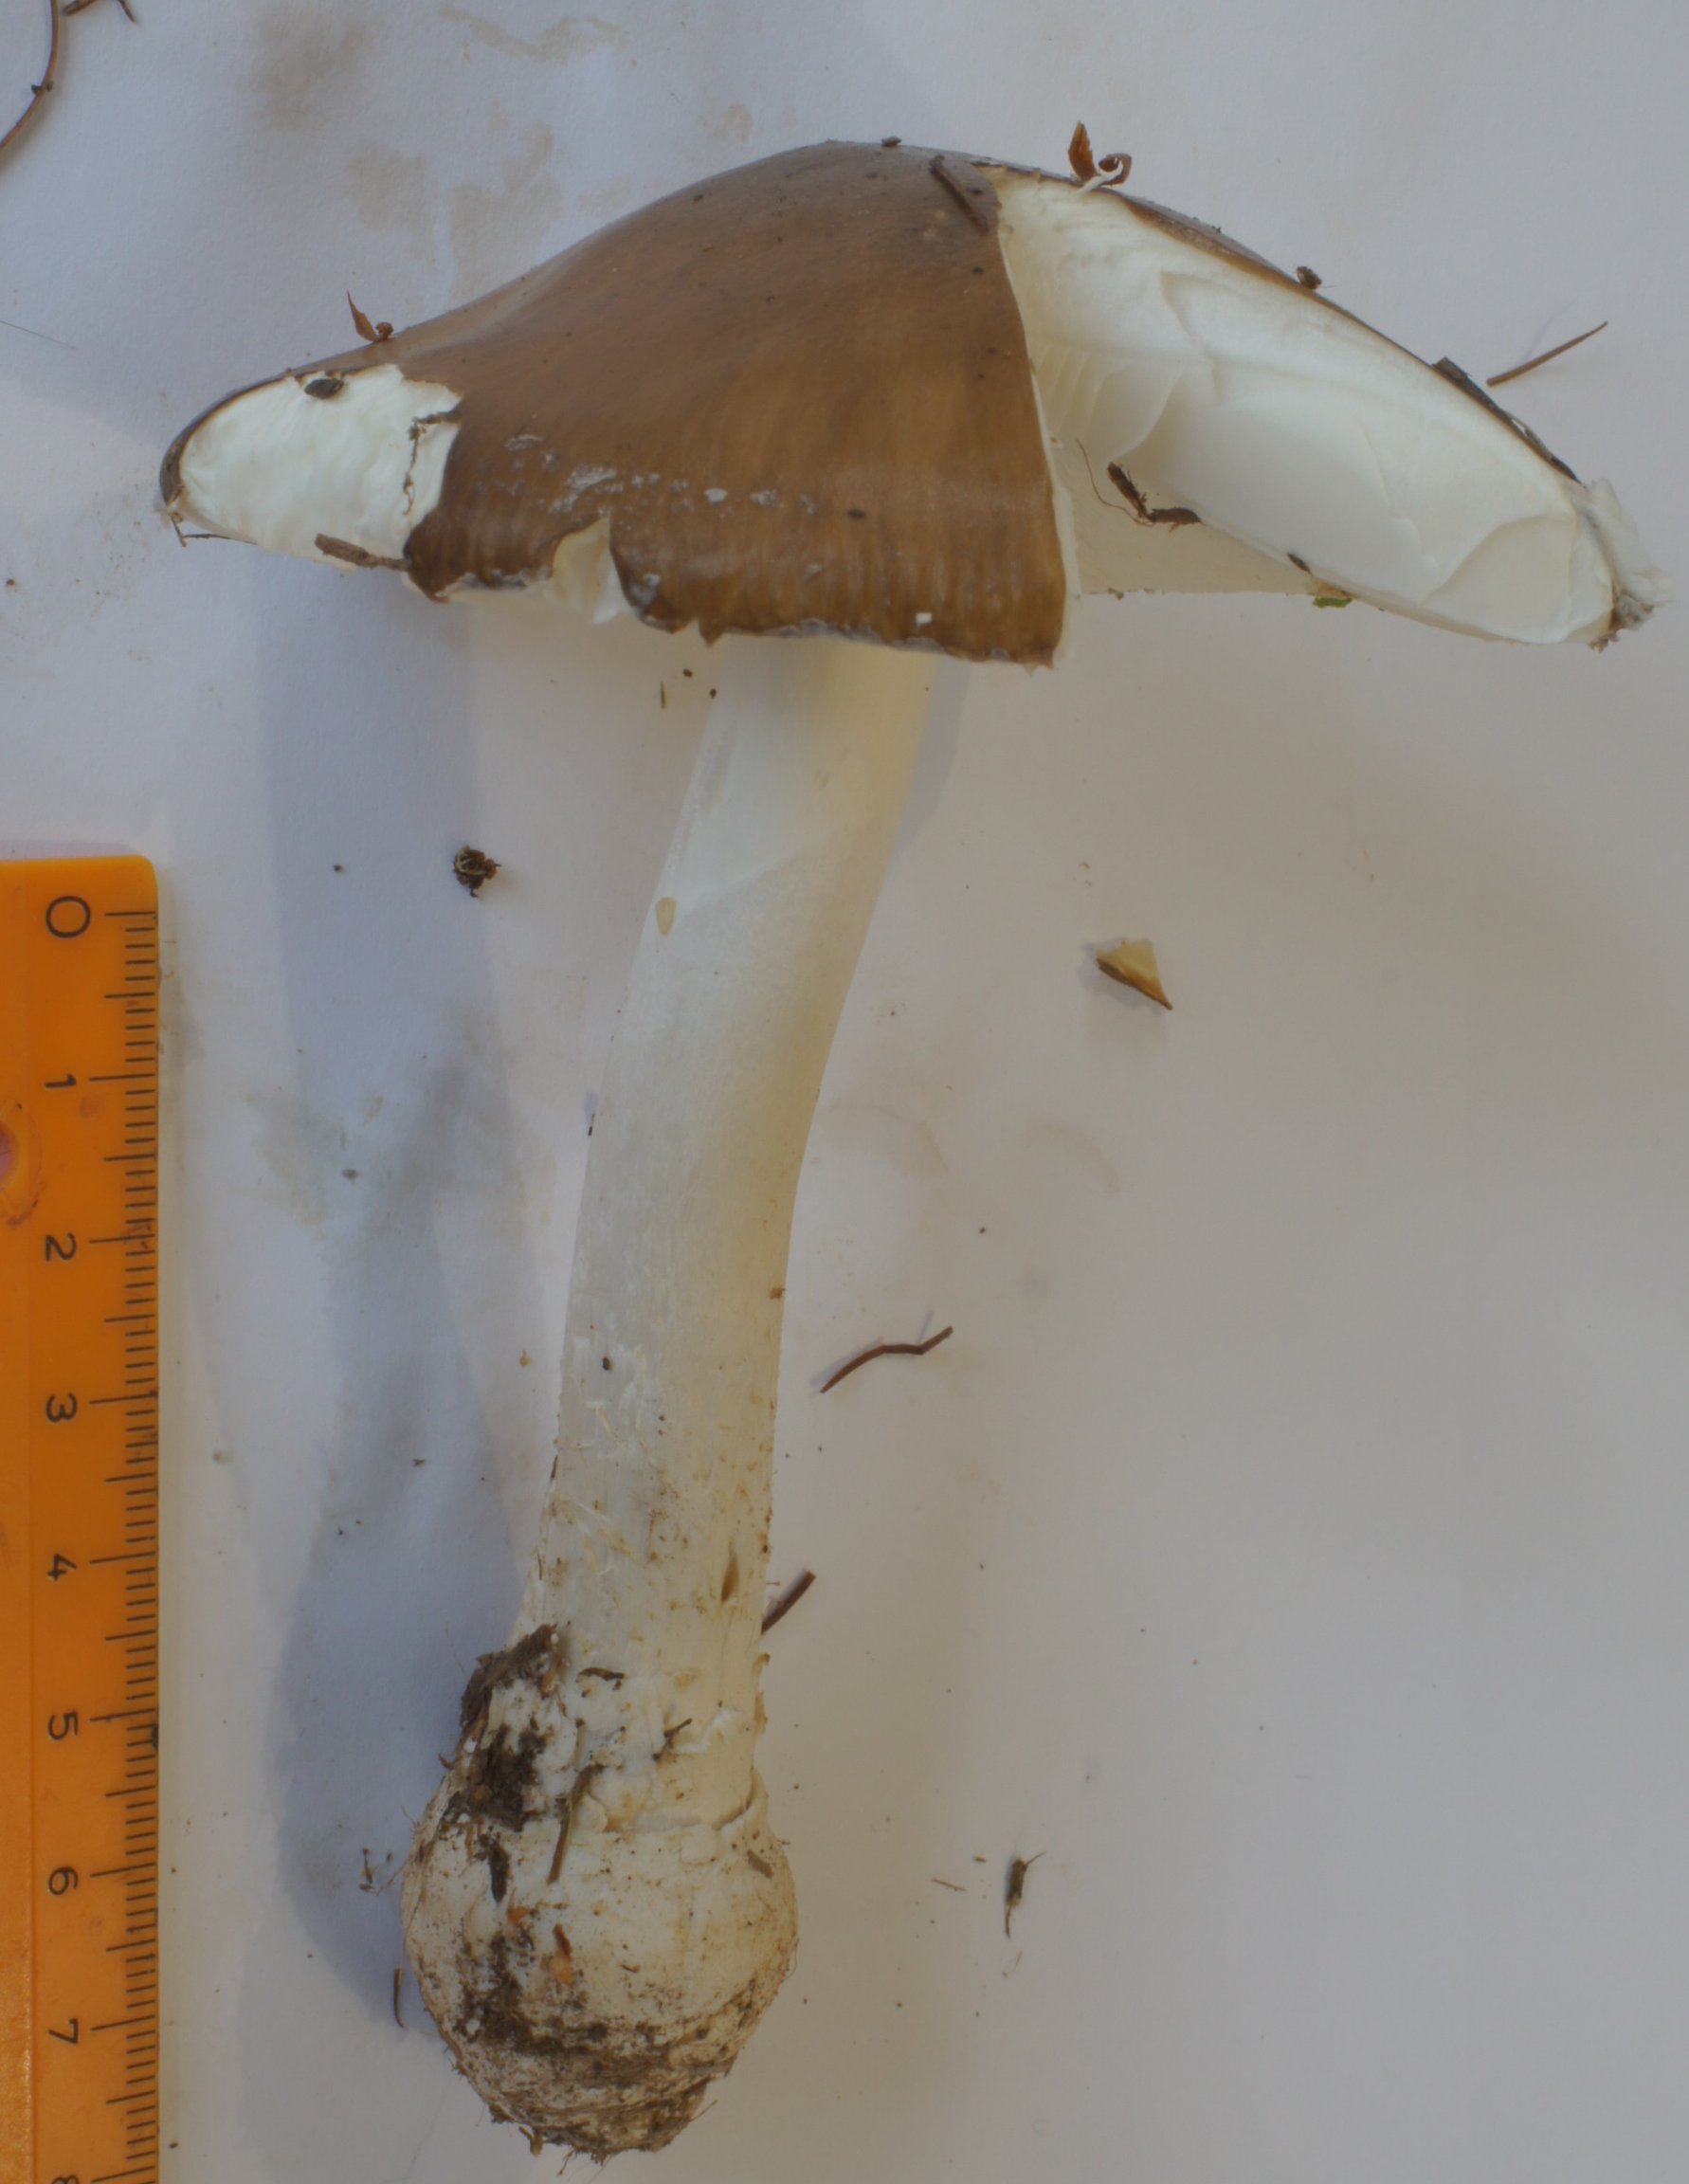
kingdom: Fungi
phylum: Basidiomycota
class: Agaricomycetes
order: Agaricales
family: Amanitaceae
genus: Amanita
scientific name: Amanita pantherina
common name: panter-fluesvamp
